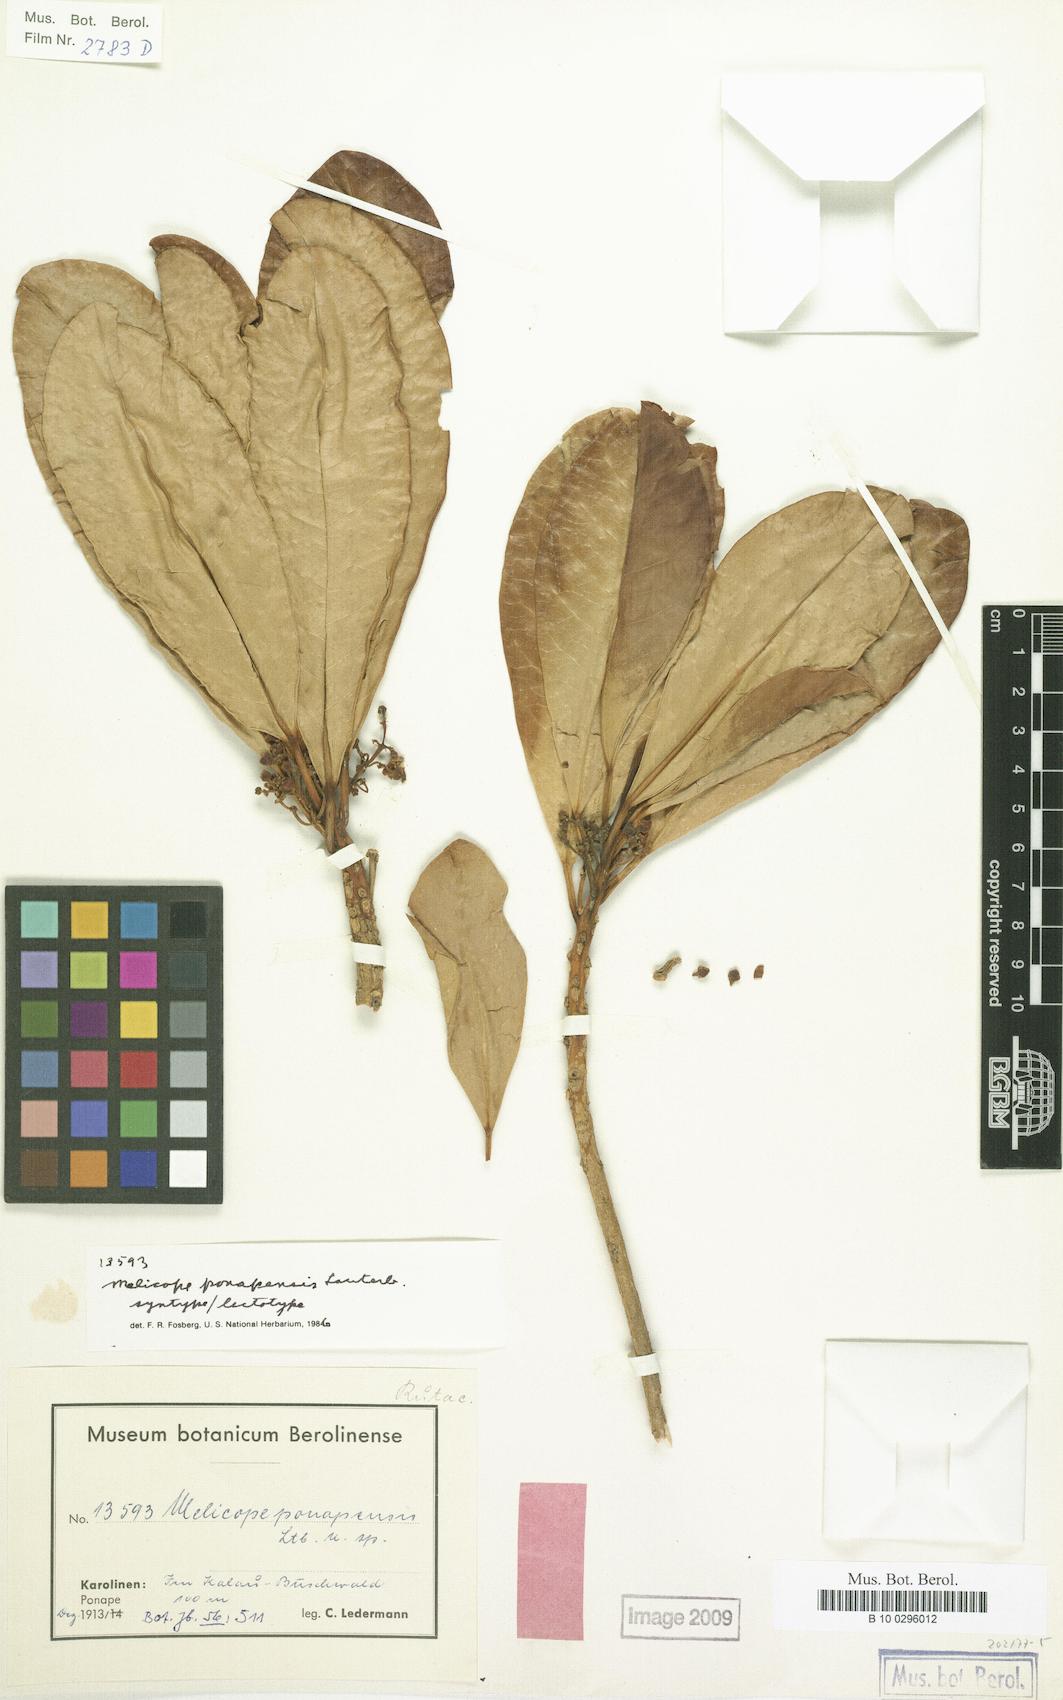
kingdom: Plantae
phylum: Tracheophyta
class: Magnoliopsida
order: Sapindales
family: Rutaceae
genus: Melicope
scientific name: Melicope ponapensis
